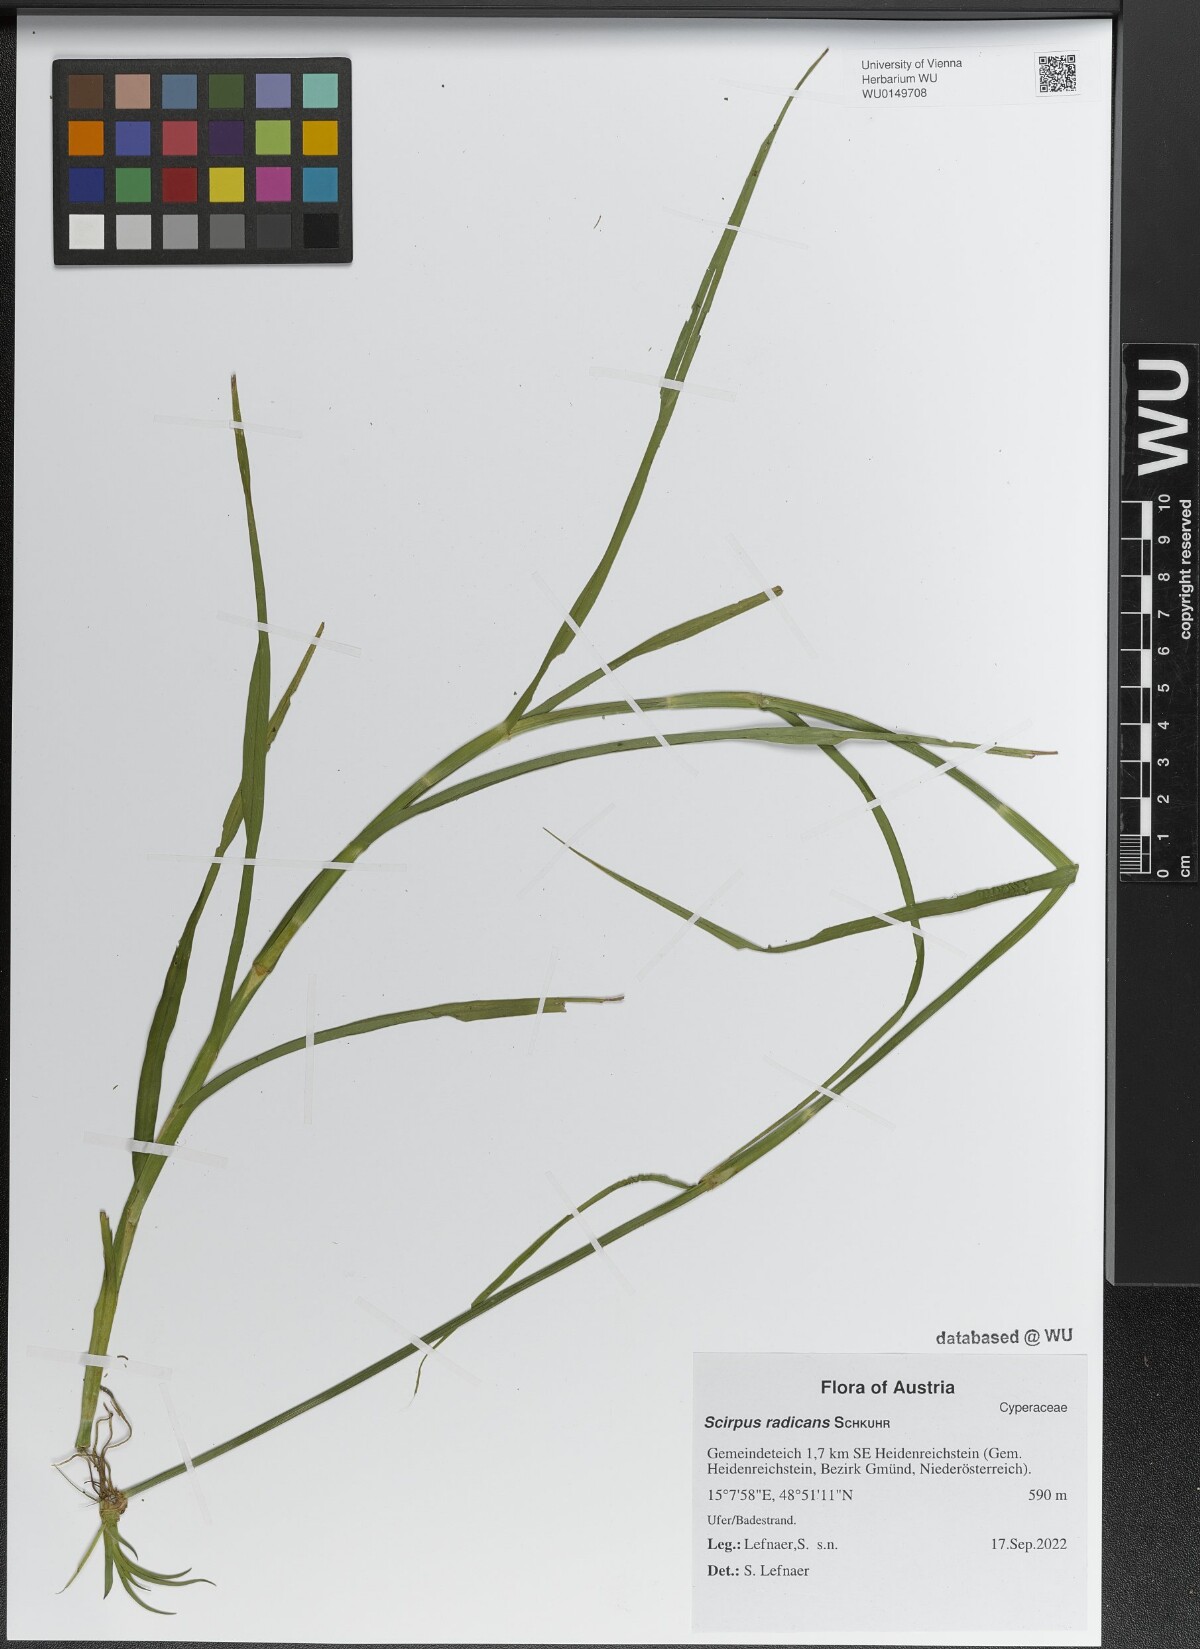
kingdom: Plantae
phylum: Tracheophyta
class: Liliopsida
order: Poales
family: Cyperaceae
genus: Scirpus
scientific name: Scirpus radicans
